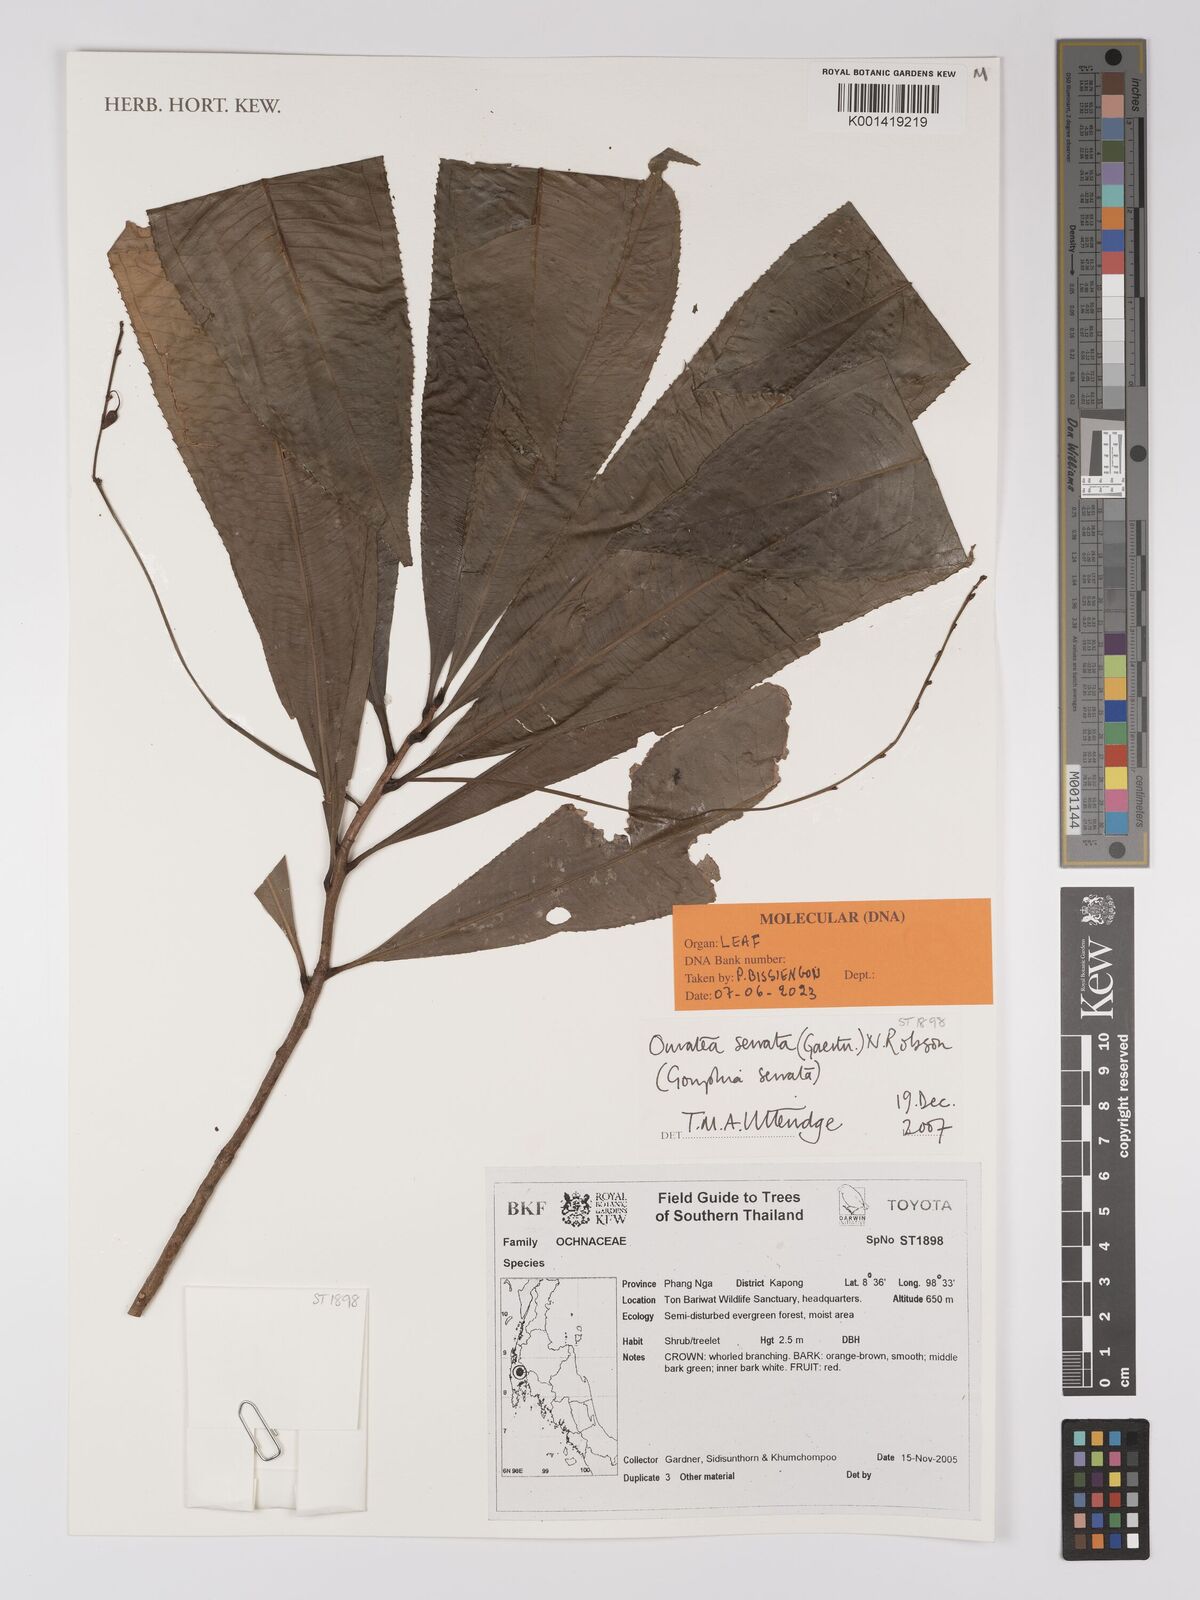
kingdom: Plantae
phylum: Tracheophyta
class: Magnoliopsida
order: Malpighiales
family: Ochnaceae
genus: Campylospermum
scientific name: Campylospermum
